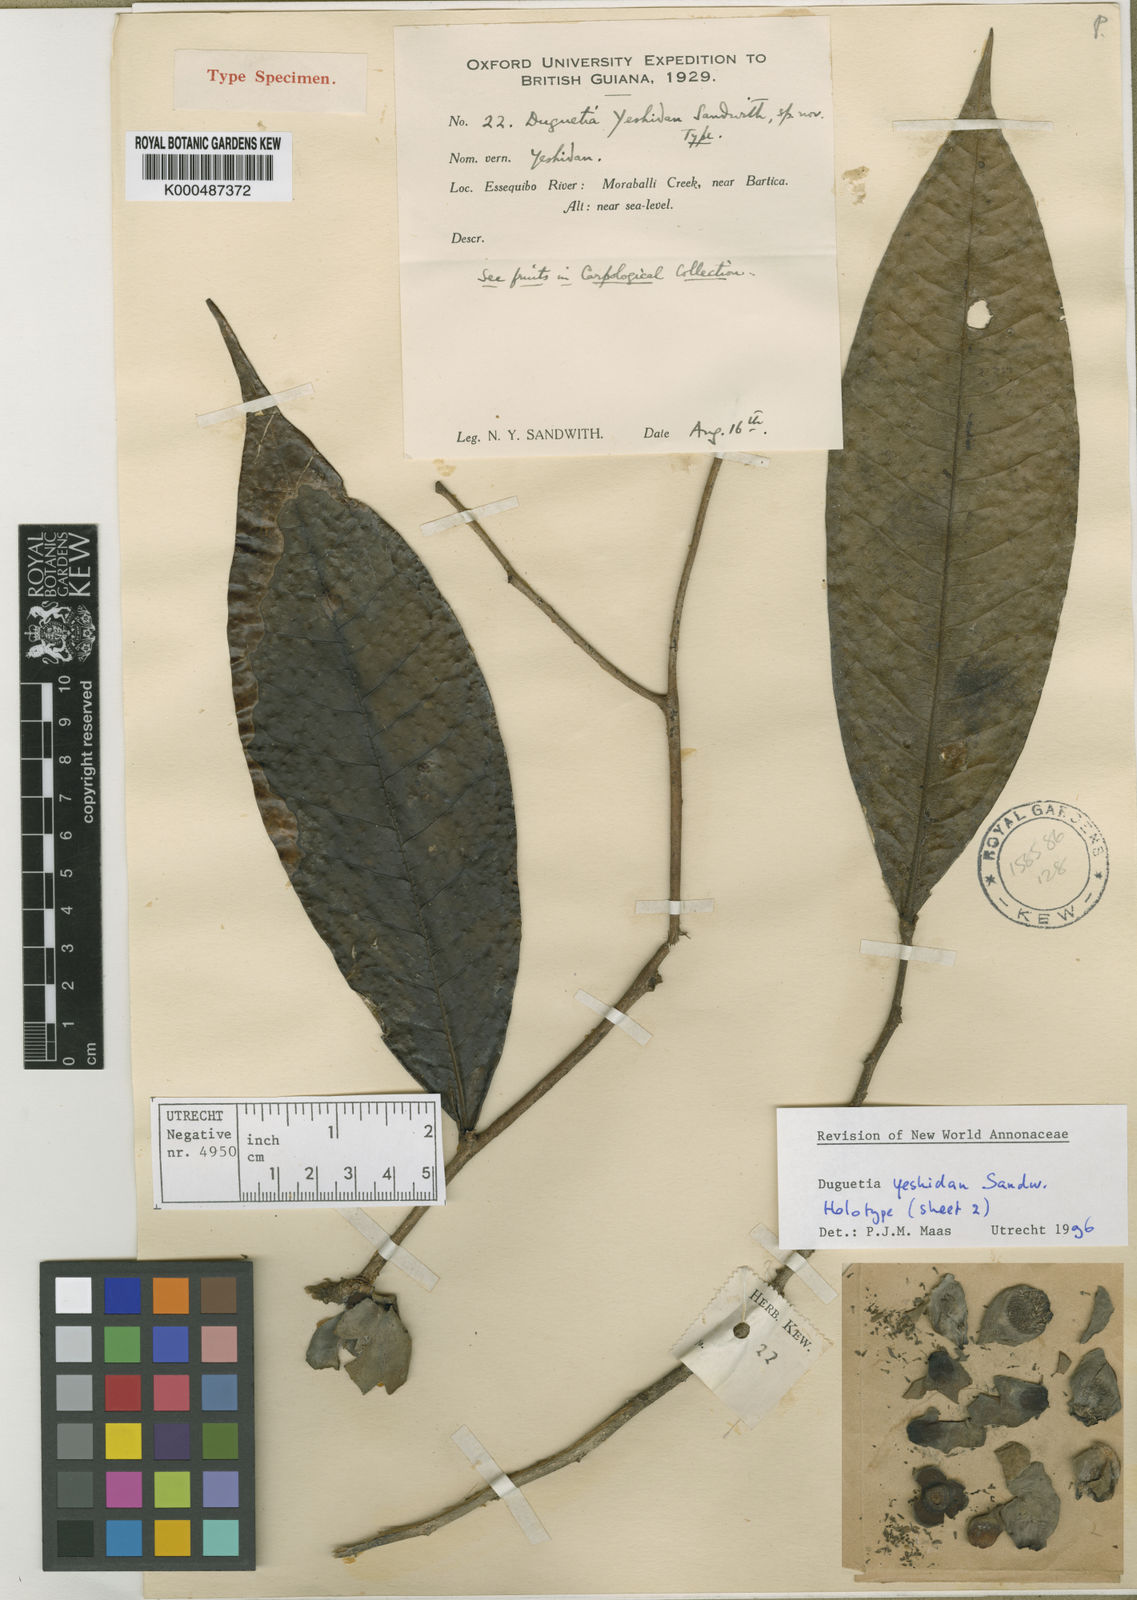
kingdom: Plantae
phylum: Tracheophyta
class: Magnoliopsida
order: Magnoliales
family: Annonaceae
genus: Duguetia
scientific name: Duguetia uniflora
